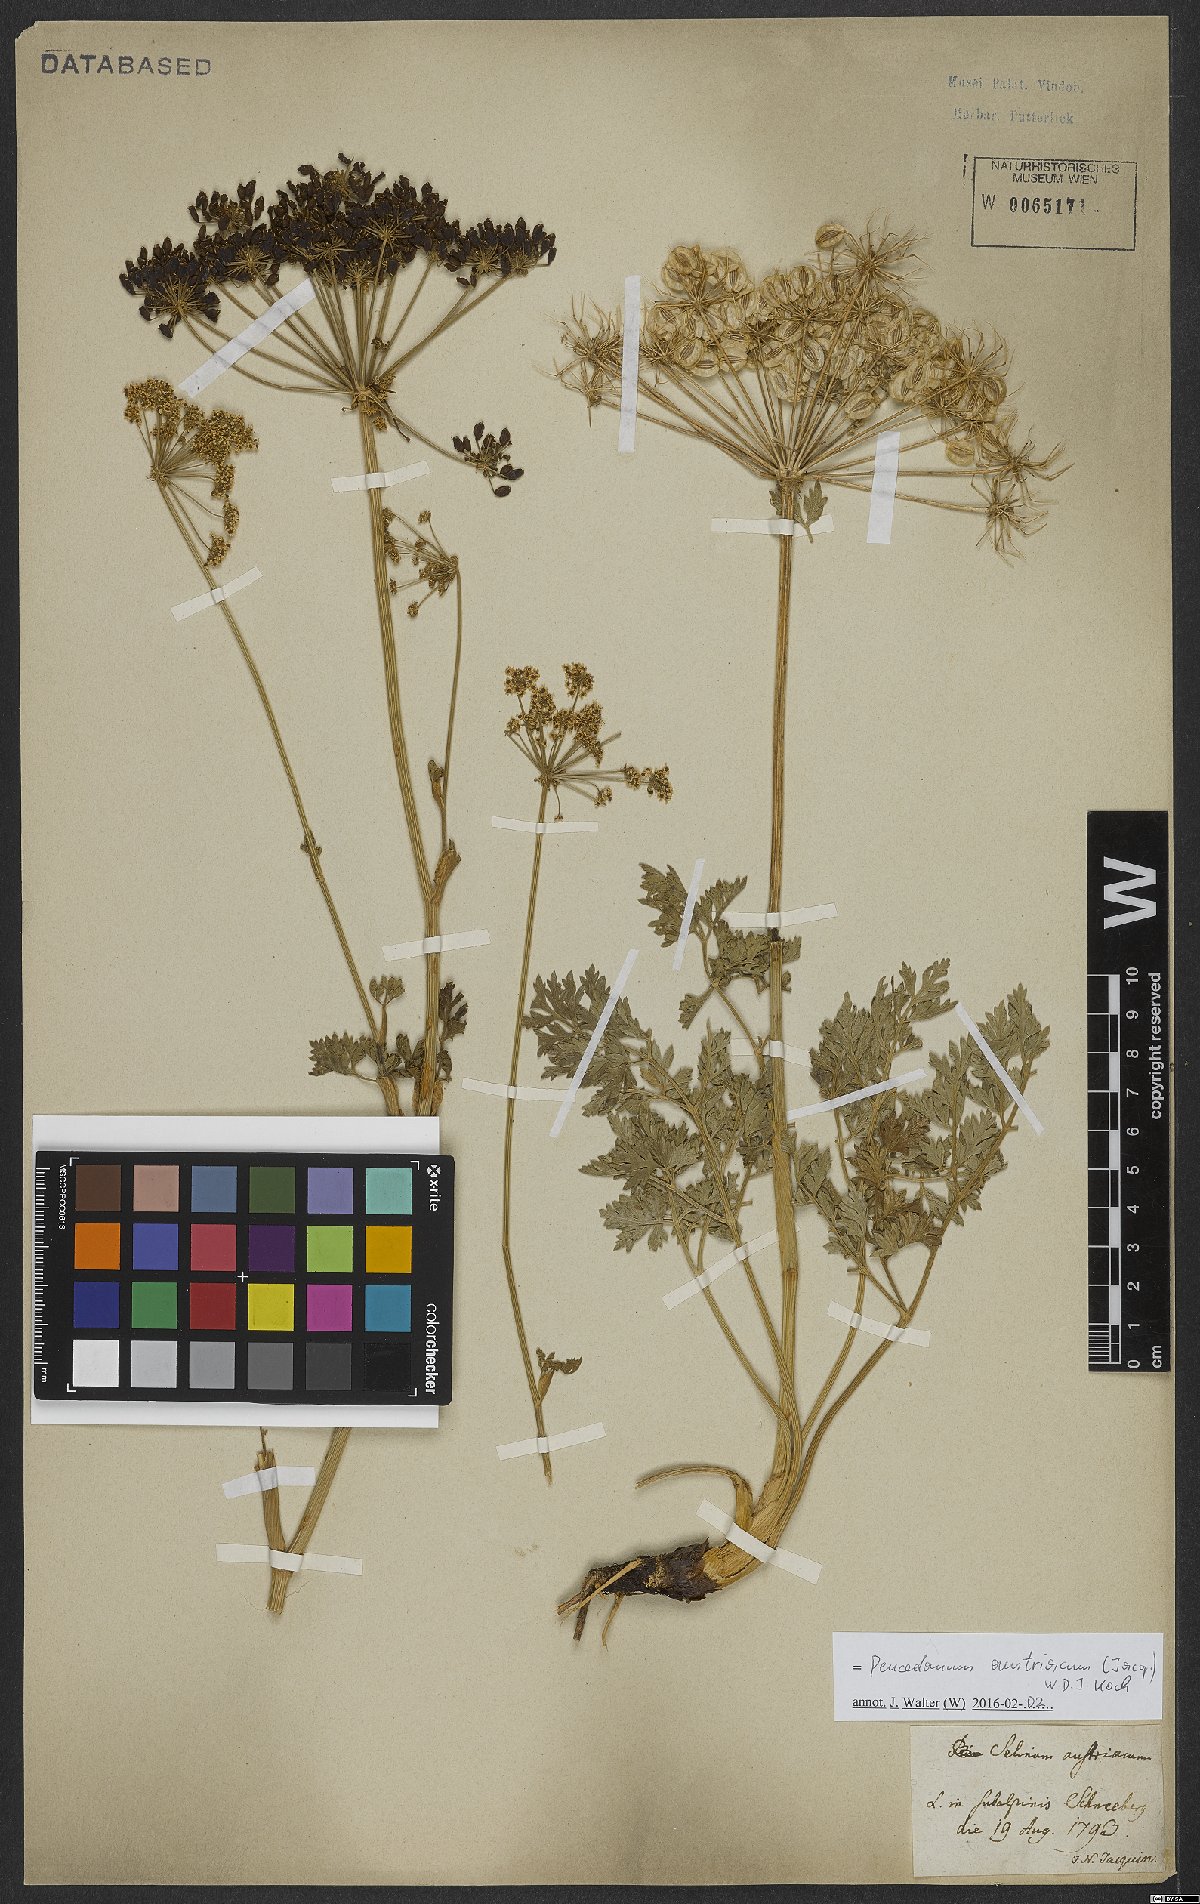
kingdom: Plantae
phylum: Tracheophyta
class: Magnoliopsida
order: Apiales
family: Apiaceae
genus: Peucedanum
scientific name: Peucedanum austriacum
